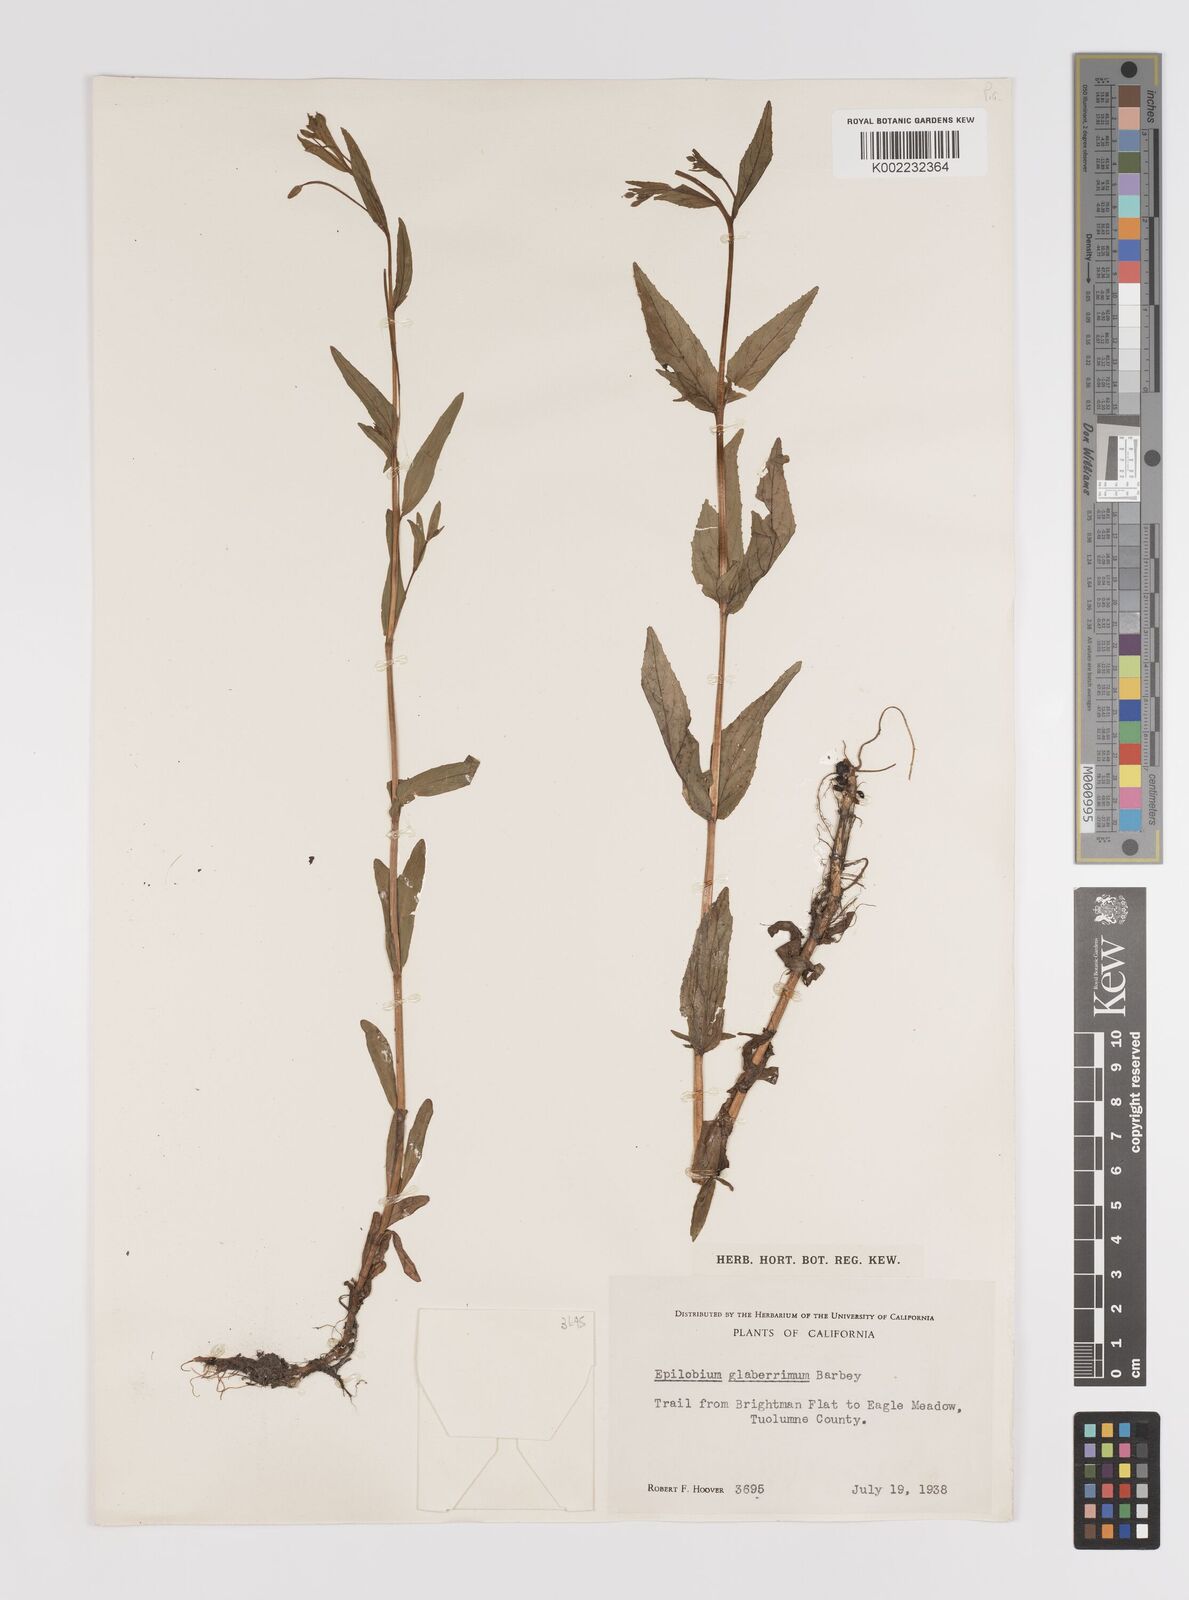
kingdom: Plantae
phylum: Tracheophyta
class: Magnoliopsida
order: Myrtales
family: Onagraceae
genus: Epilobium
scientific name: Epilobium glaberrimum
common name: Glaucous willowherb
